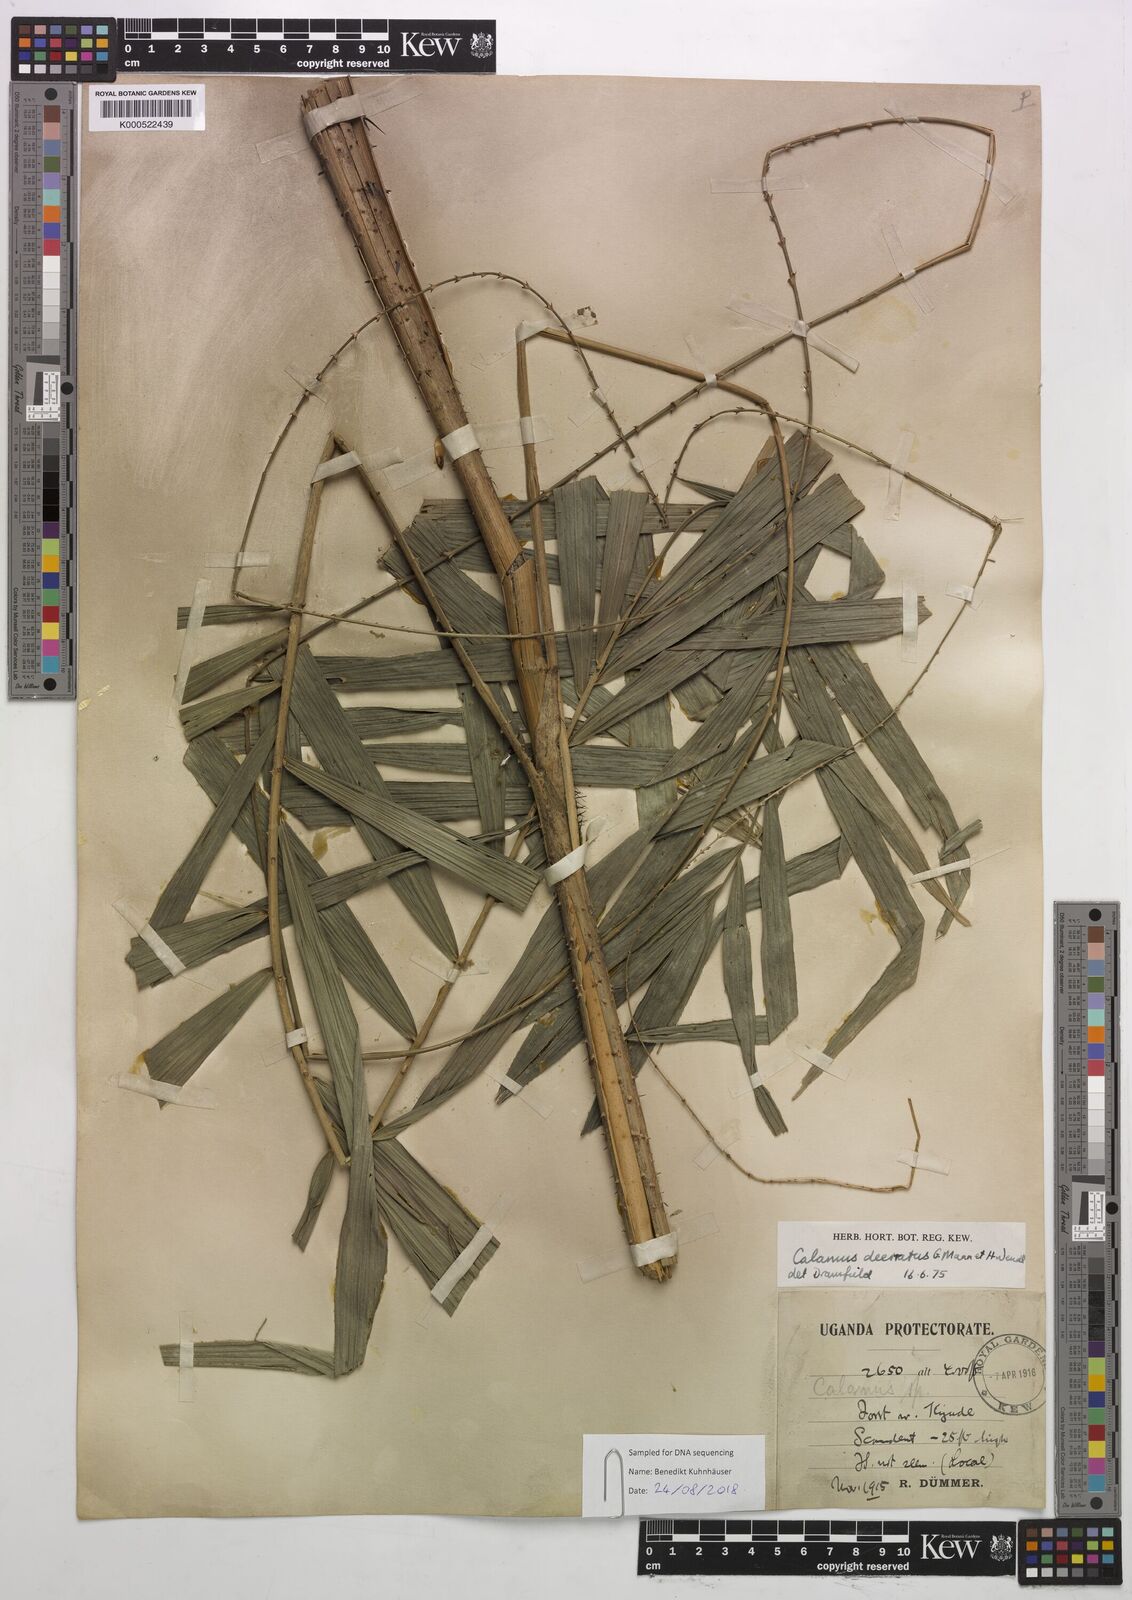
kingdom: Plantae
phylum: Tracheophyta
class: Liliopsida
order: Arecales
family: Arecaceae
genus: Calamus
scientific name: Calamus deerratus
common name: Rattan
